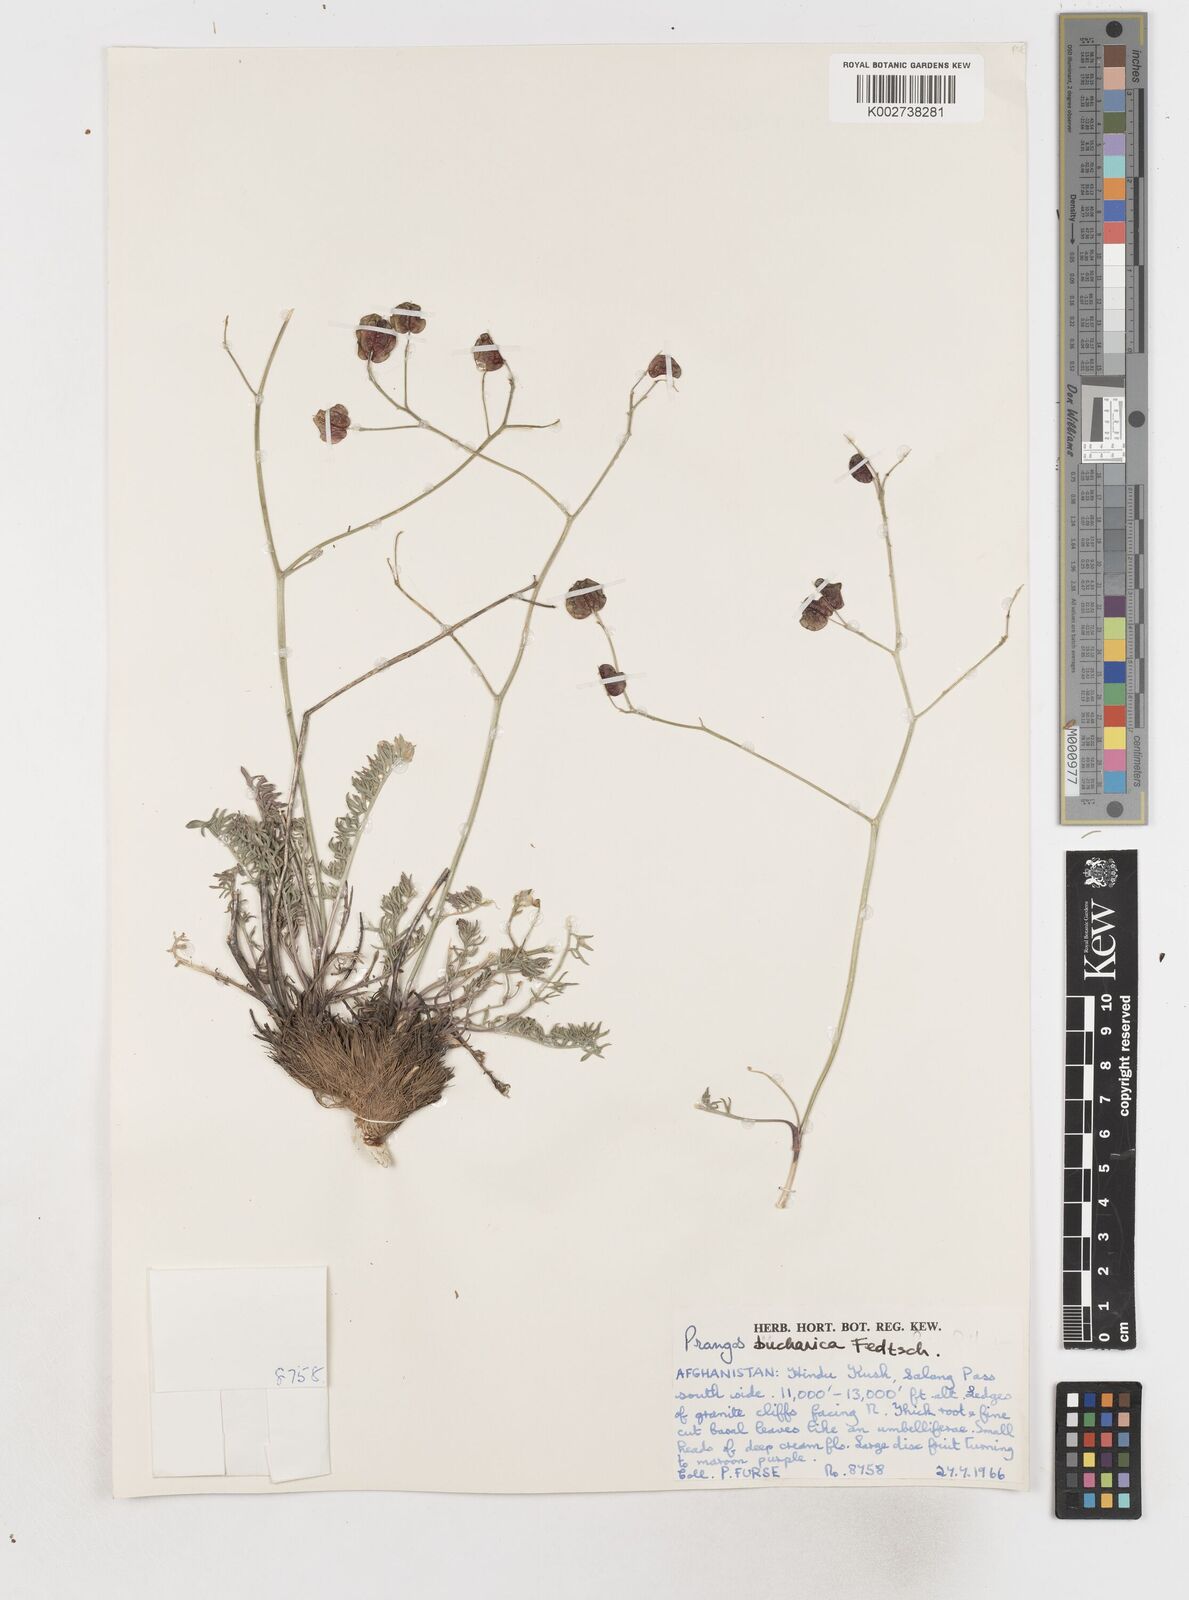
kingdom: Plantae
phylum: Tracheophyta
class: Magnoliopsida
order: Apiales
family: Apiaceae
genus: Prangos
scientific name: Prangos bucharica
